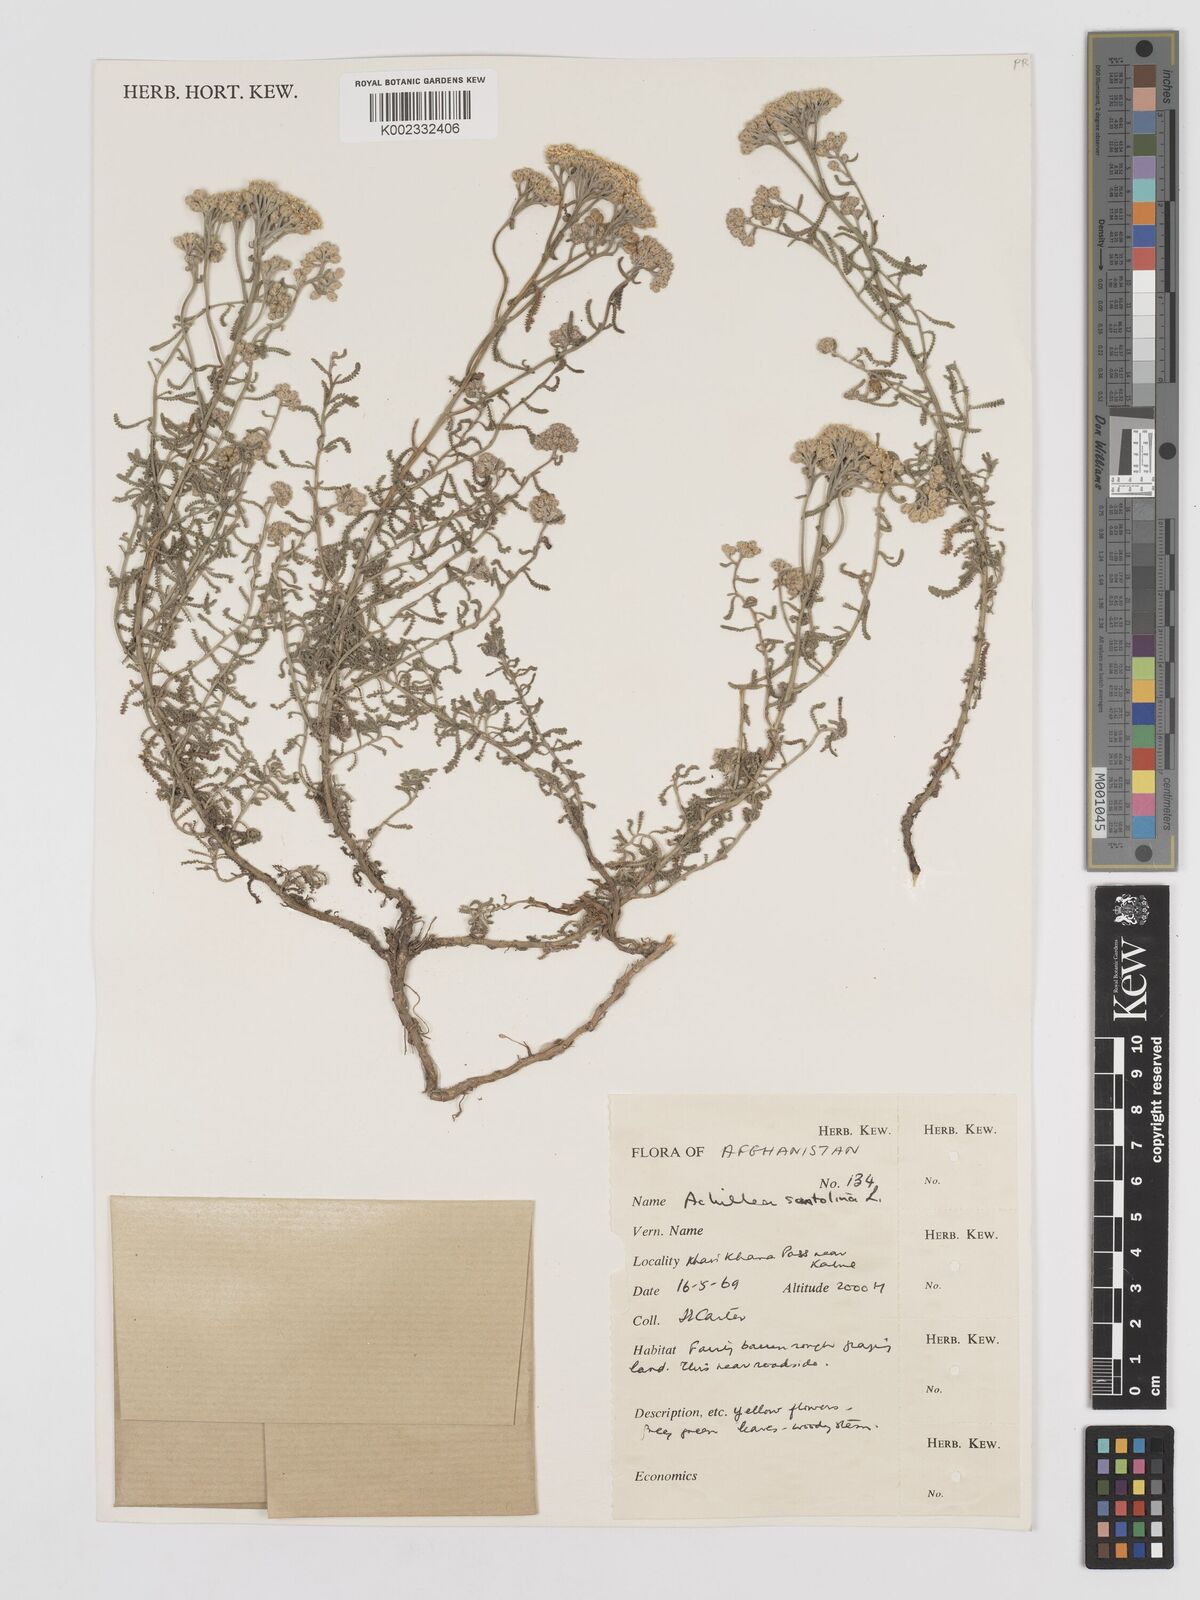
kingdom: Plantae
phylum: Tracheophyta
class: Magnoliopsida
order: Asterales
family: Asteraceae
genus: Achillea
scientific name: Achillea tenuifolia
